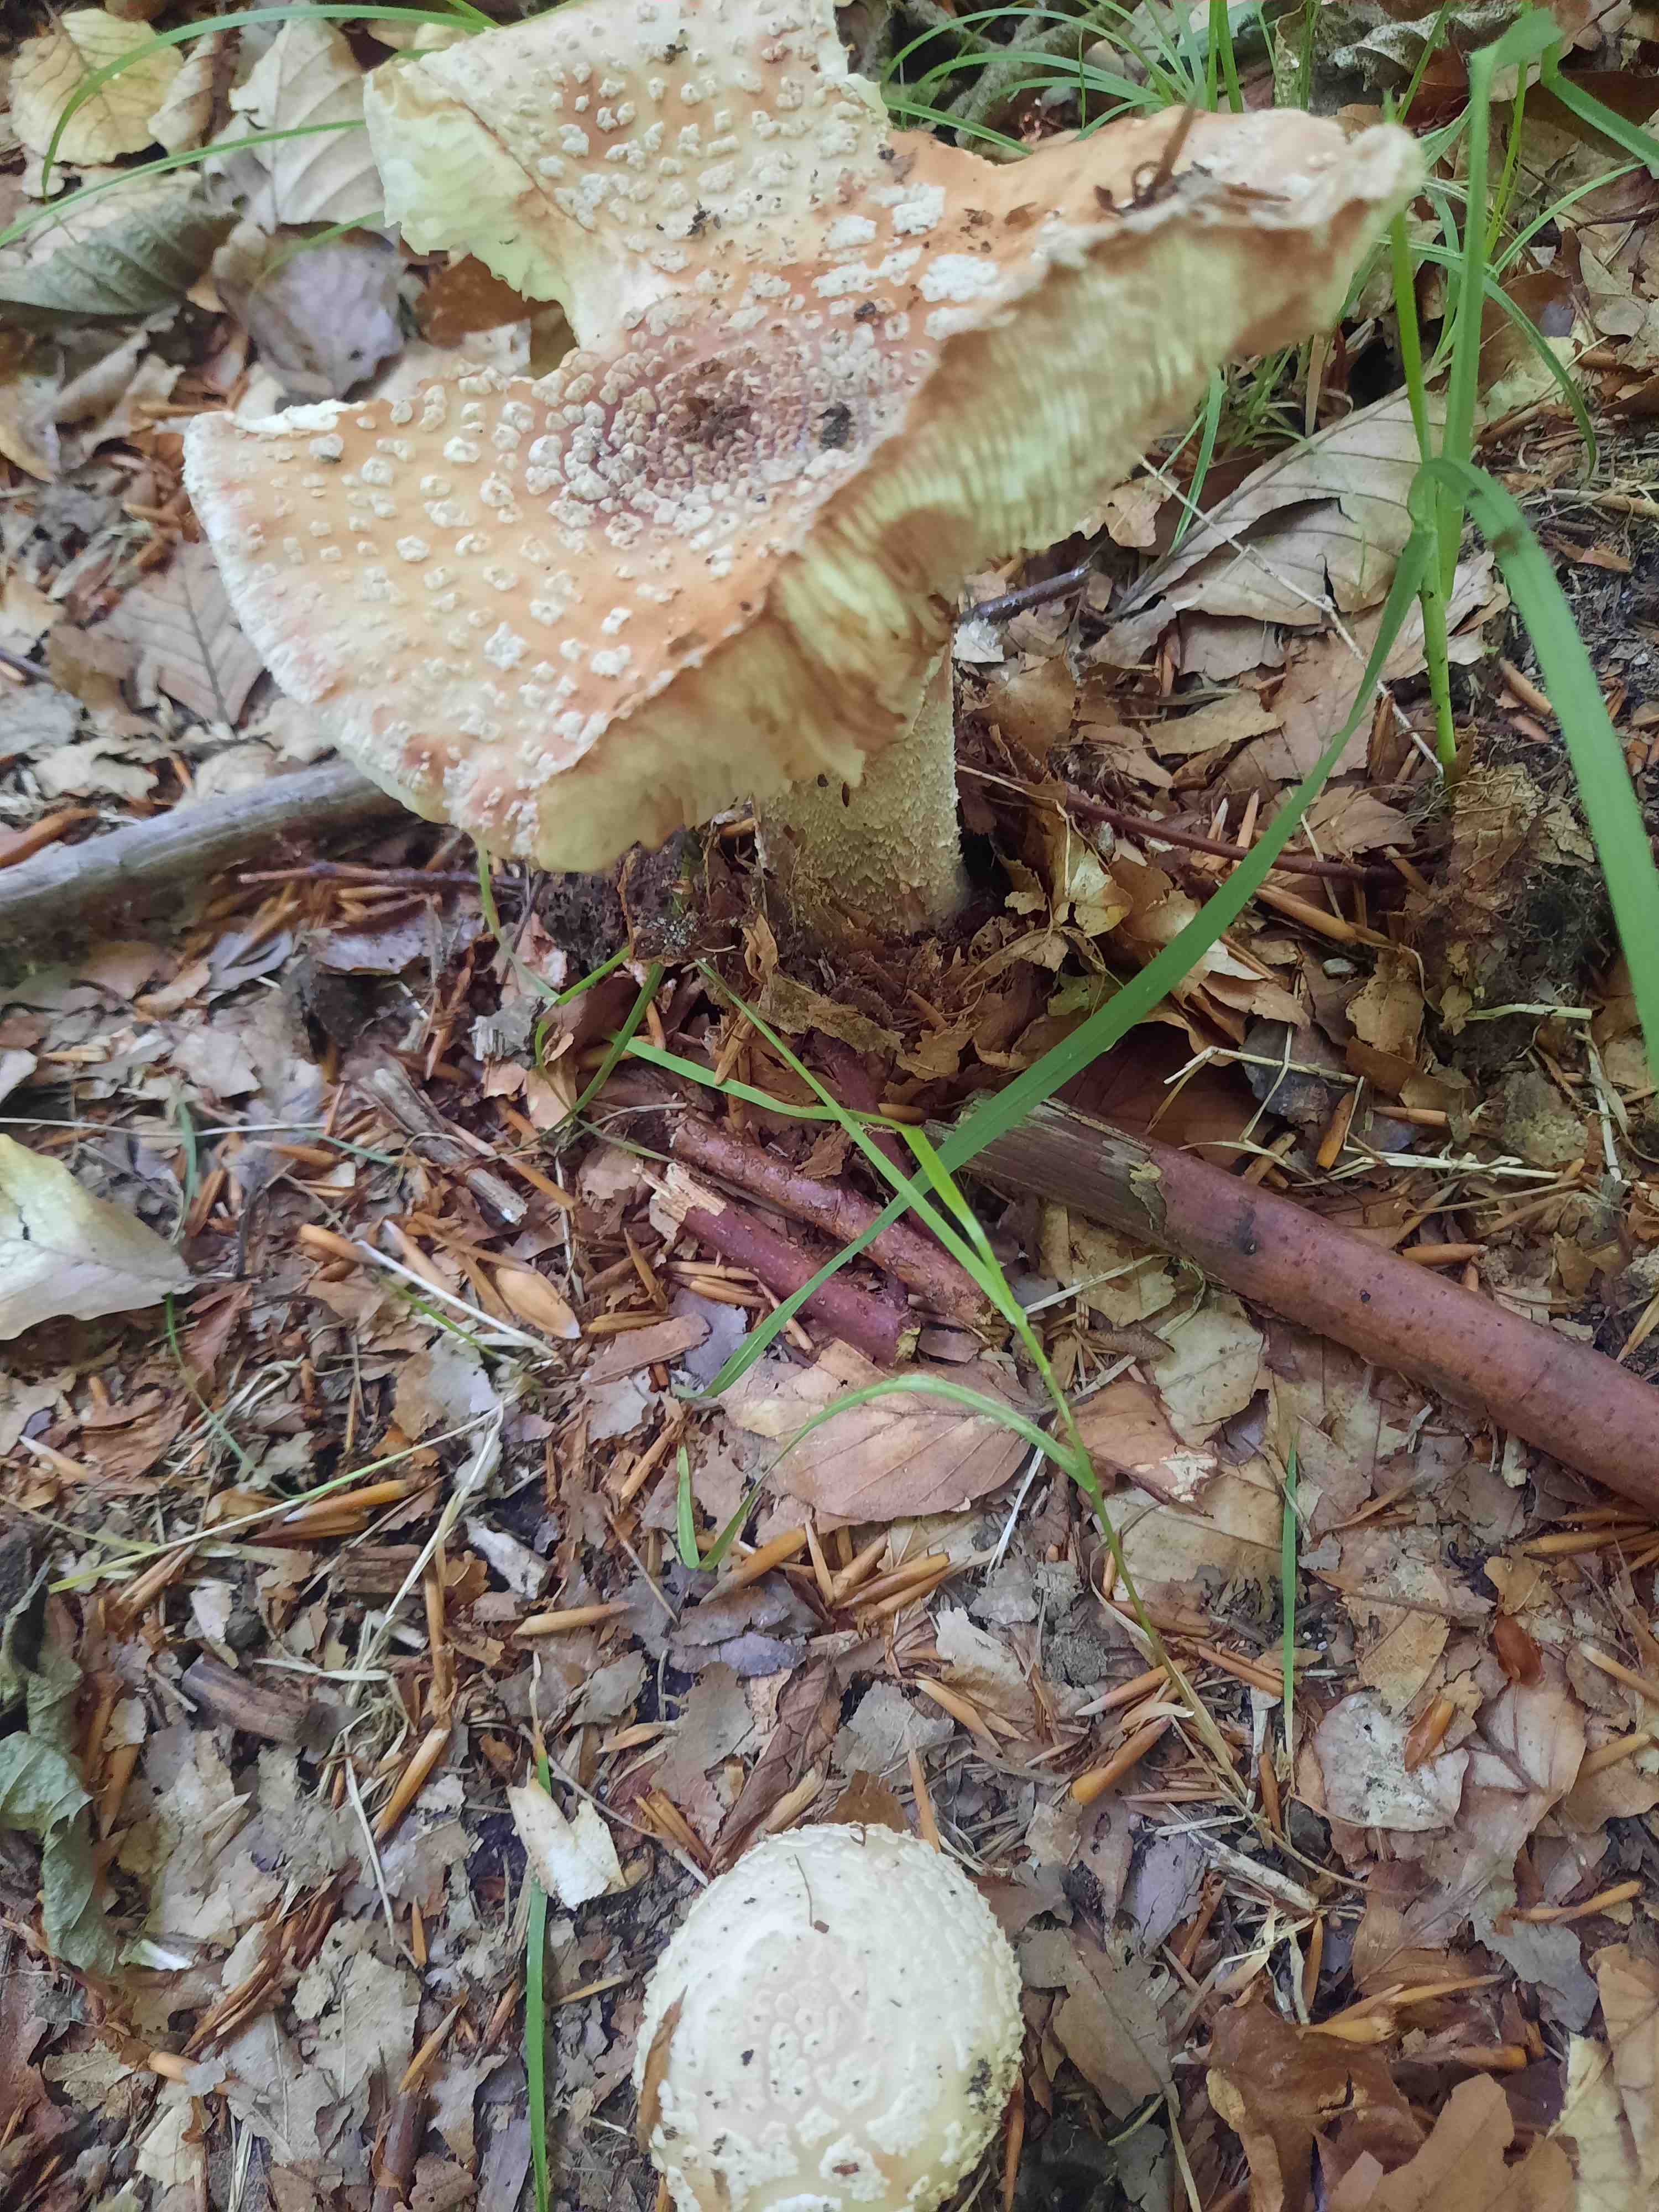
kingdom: Fungi
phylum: Basidiomycota
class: Agaricomycetes
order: Agaricales
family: Amanitaceae
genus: Amanita
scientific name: Amanita rubescens
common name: rødmende fluesvamp
